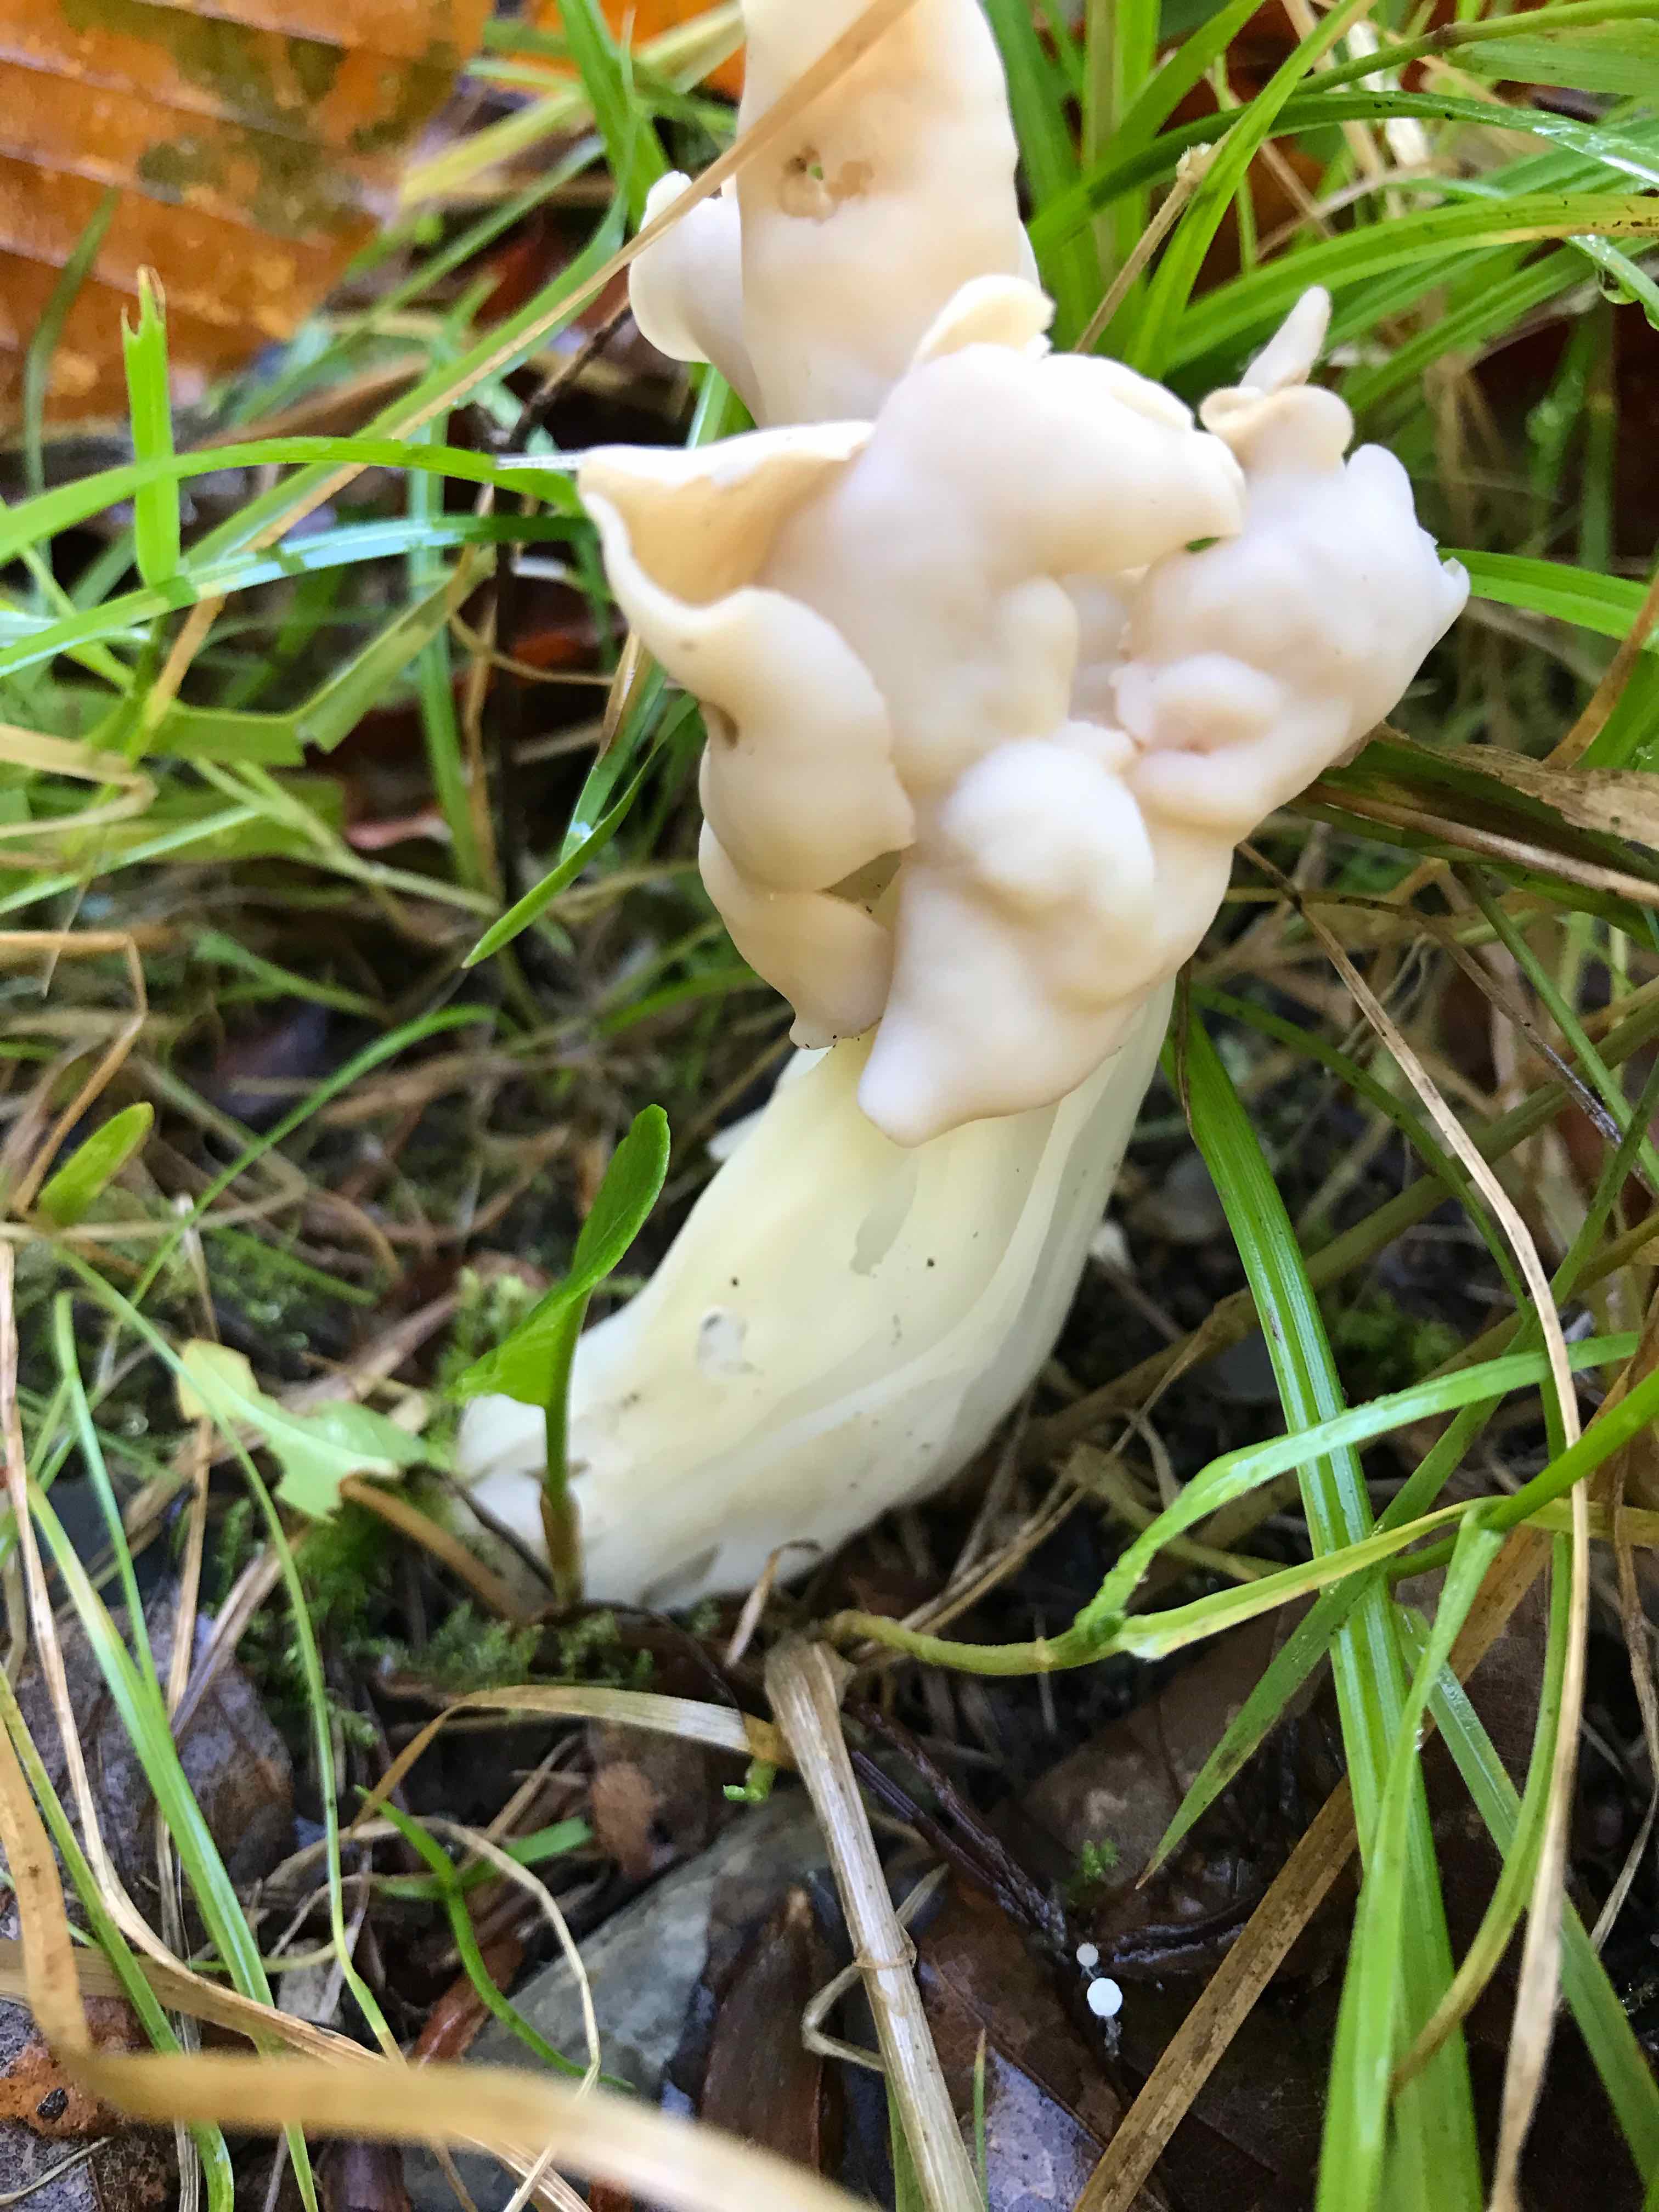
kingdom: Fungi
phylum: Ascomycota
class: Pezizomycetes
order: Pezizales
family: Helvellaceae
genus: Helvella
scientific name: Helvella crispa
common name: kruset foldhat
